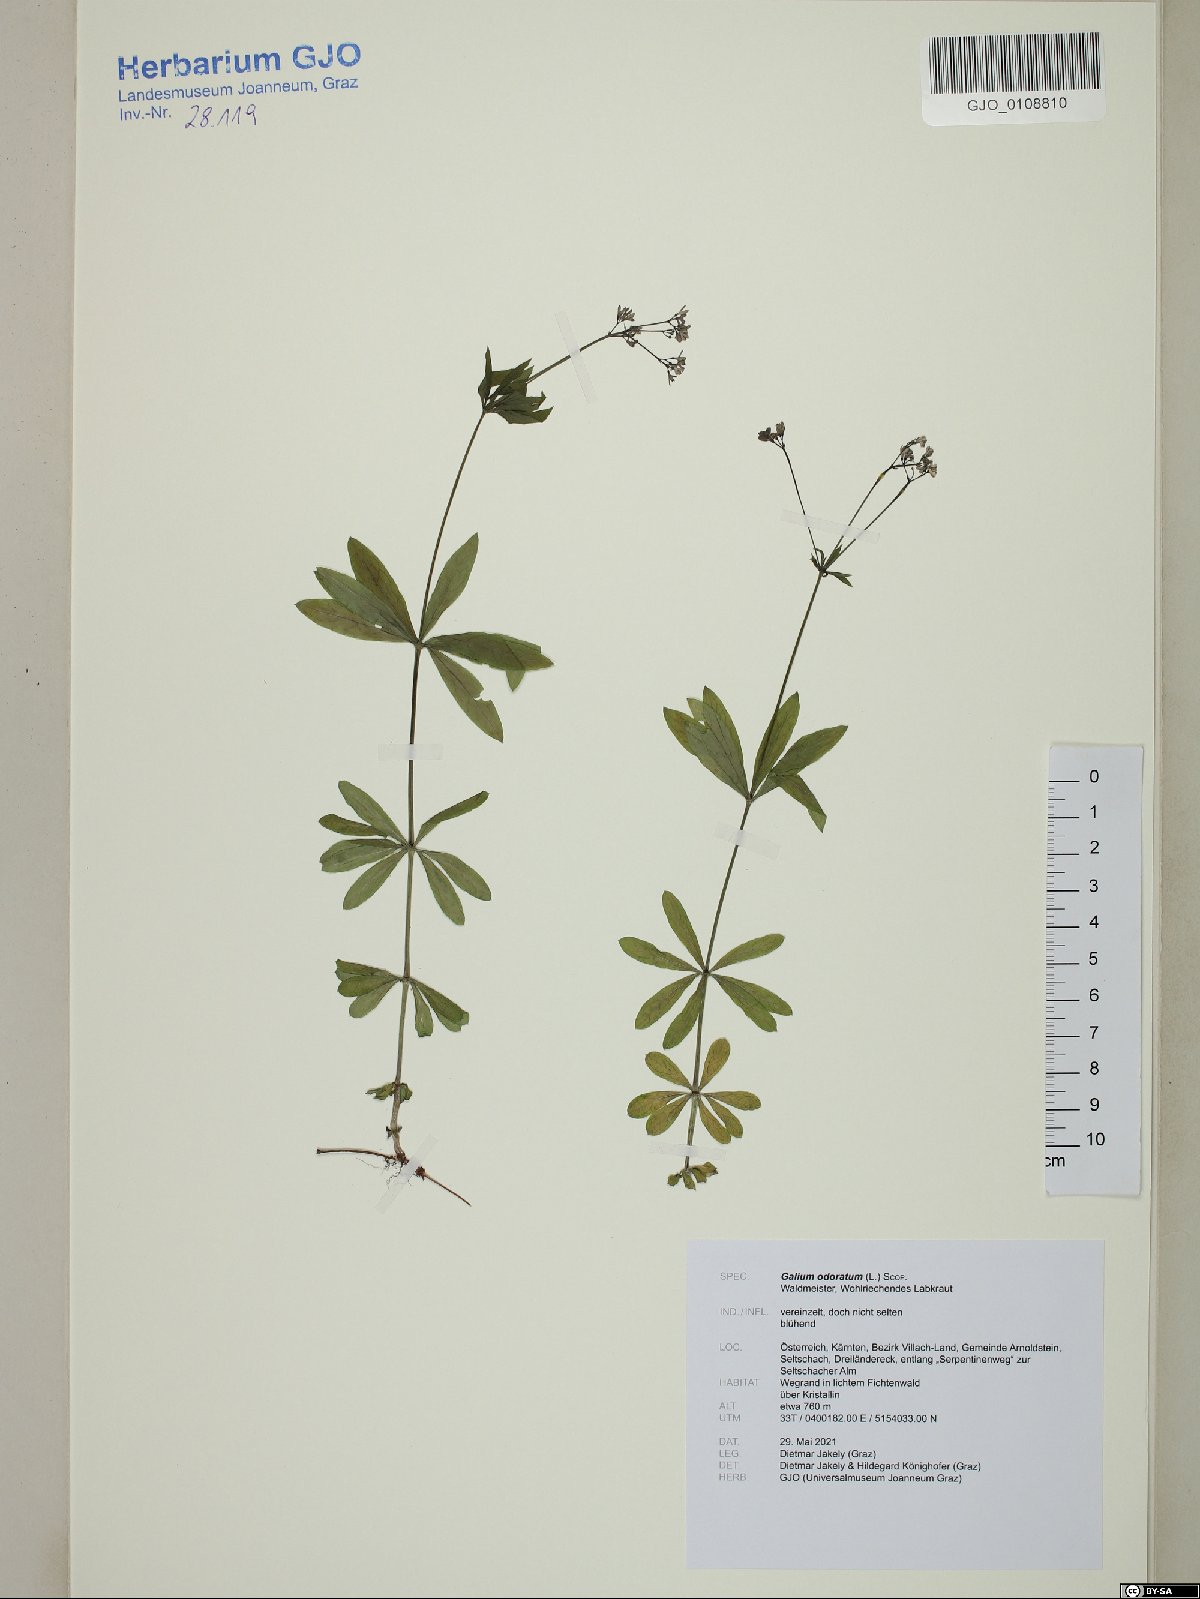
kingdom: Plantae
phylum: Tracheophyta
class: Magnoliopsida
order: Gentianales
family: Rubiaceae
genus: Galium
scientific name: Galium odoratum
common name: Sweet woodruff
